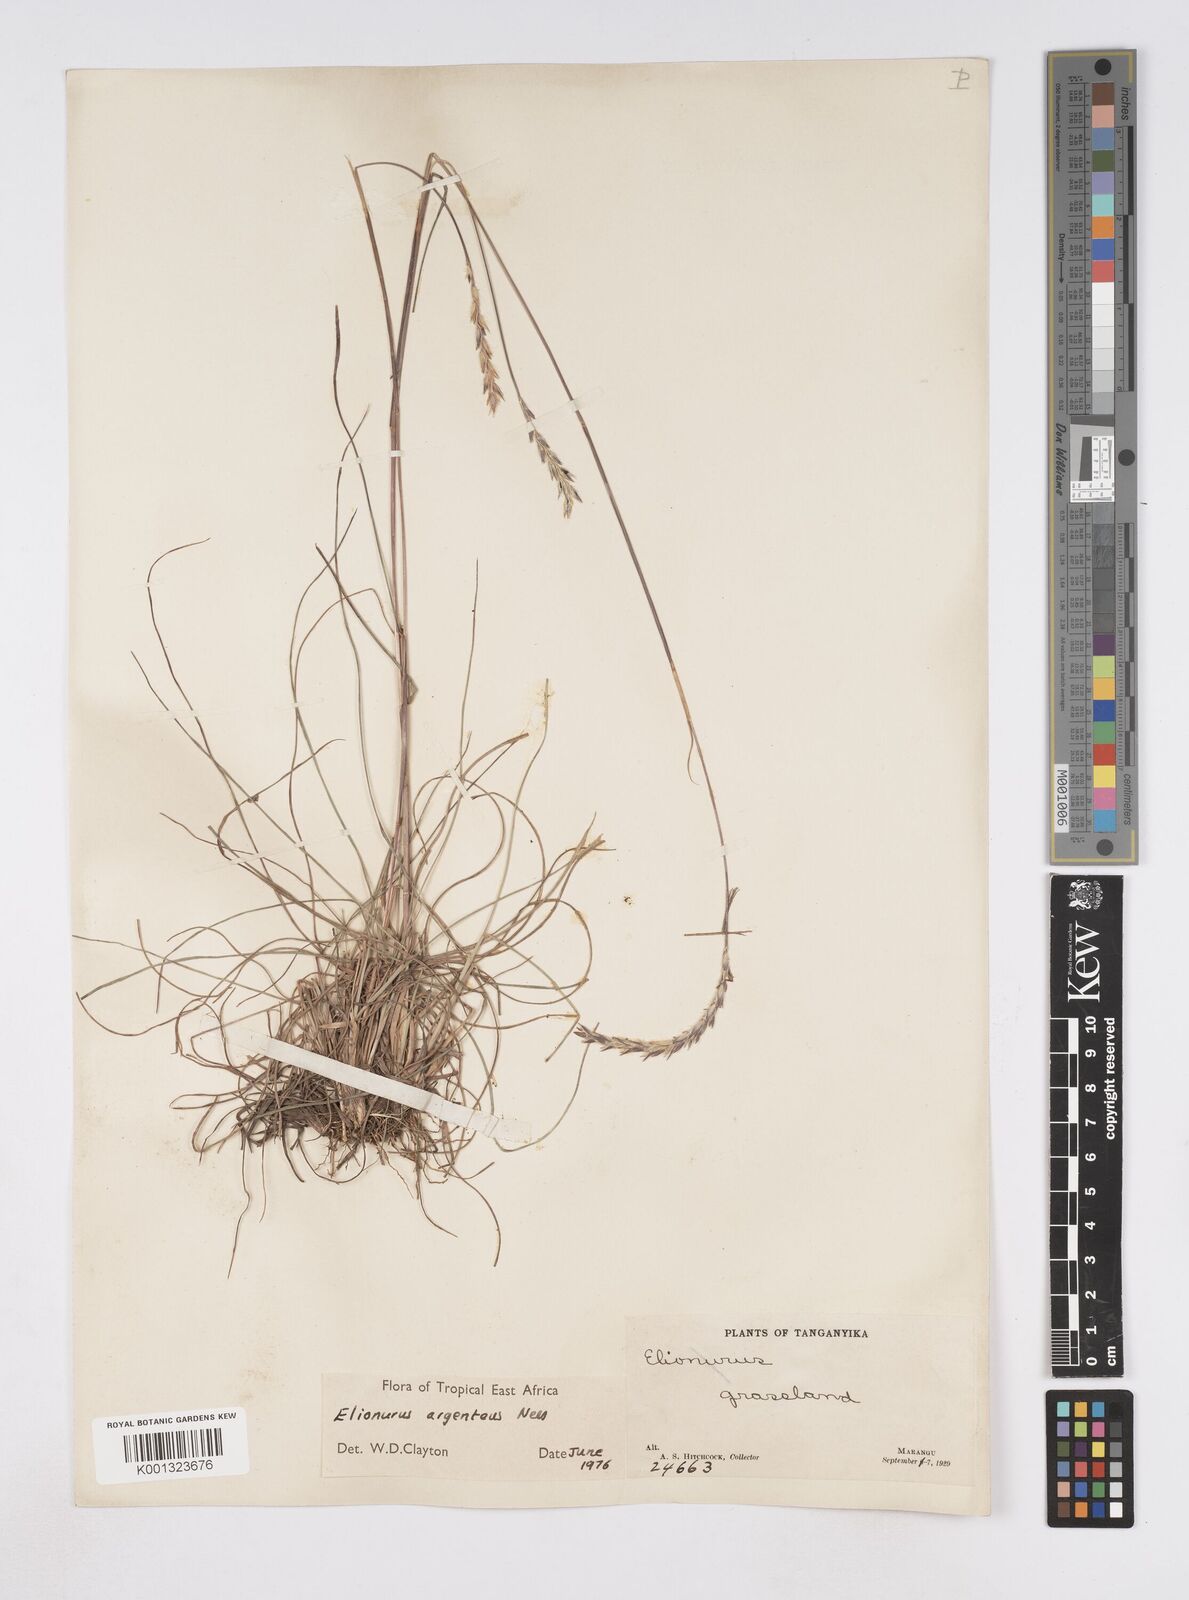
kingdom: Plantae
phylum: Tracheophyta
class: Liliopsida
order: Poales
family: Poaceae
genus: Elionurus
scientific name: Elionurus
